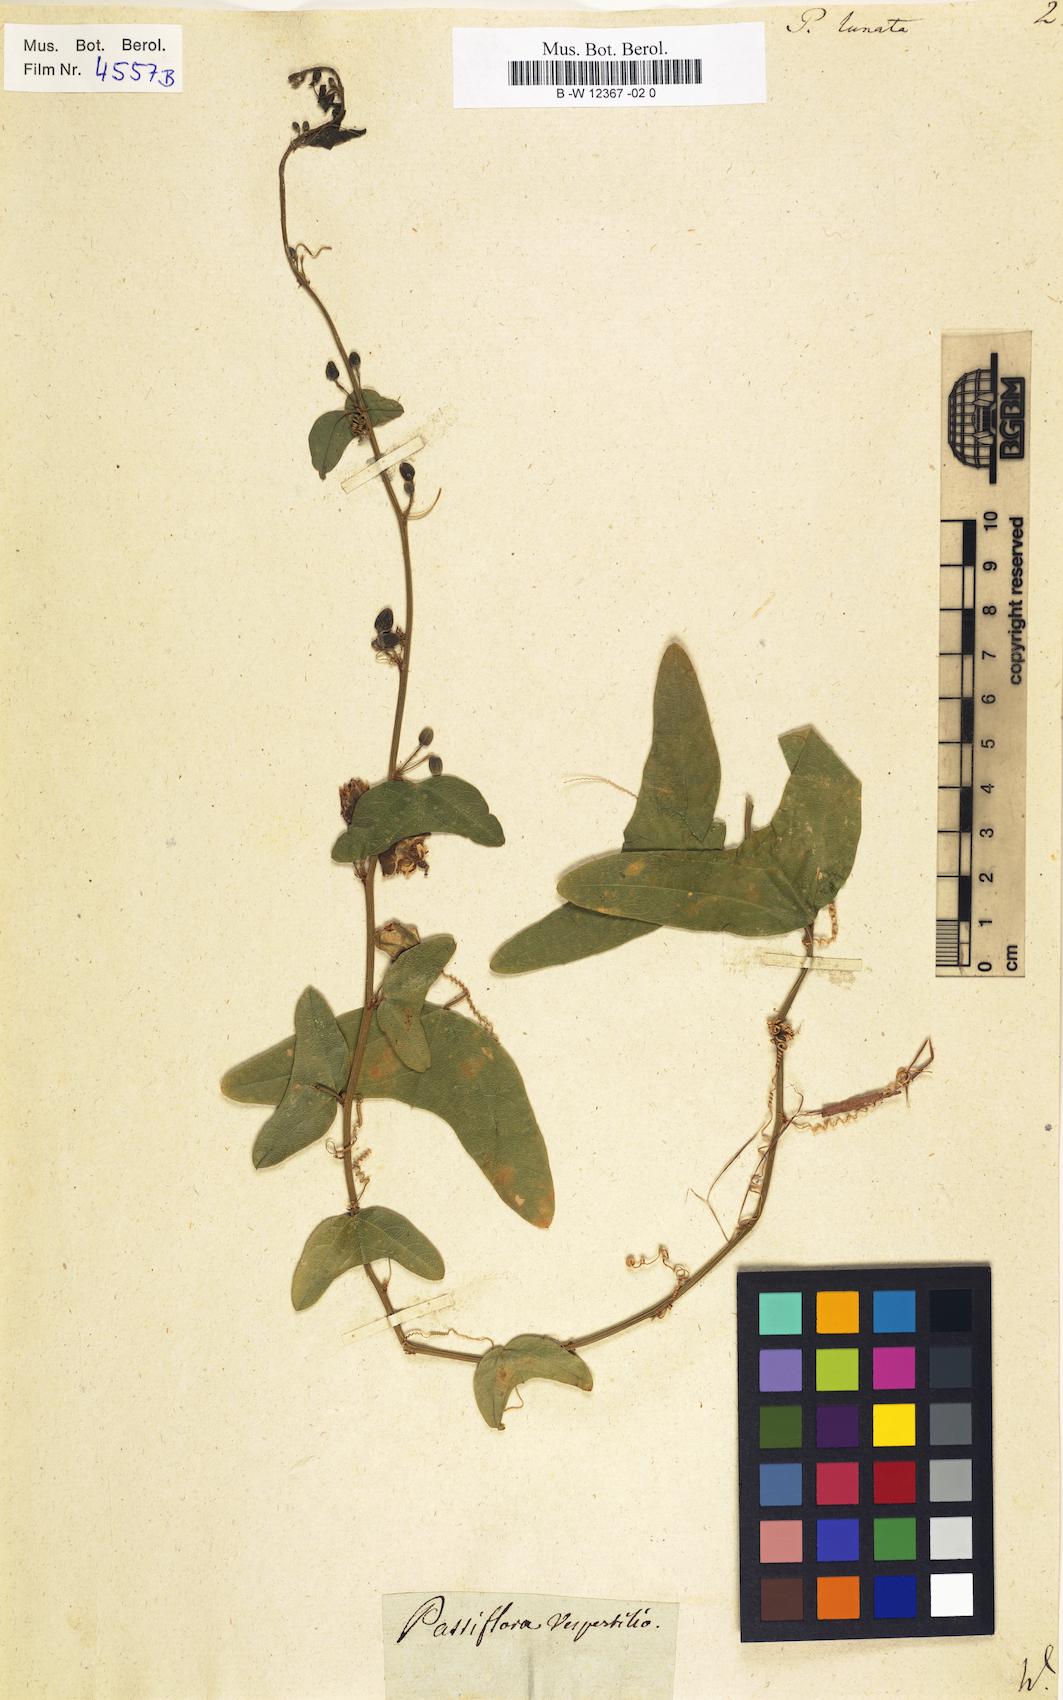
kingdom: Plantae
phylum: Tracheophyta
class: Magnoliopsida
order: Malpighiales
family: Passifloraceae
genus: Passiflora
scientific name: Passiflora biflora
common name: Twoflower passionflower
